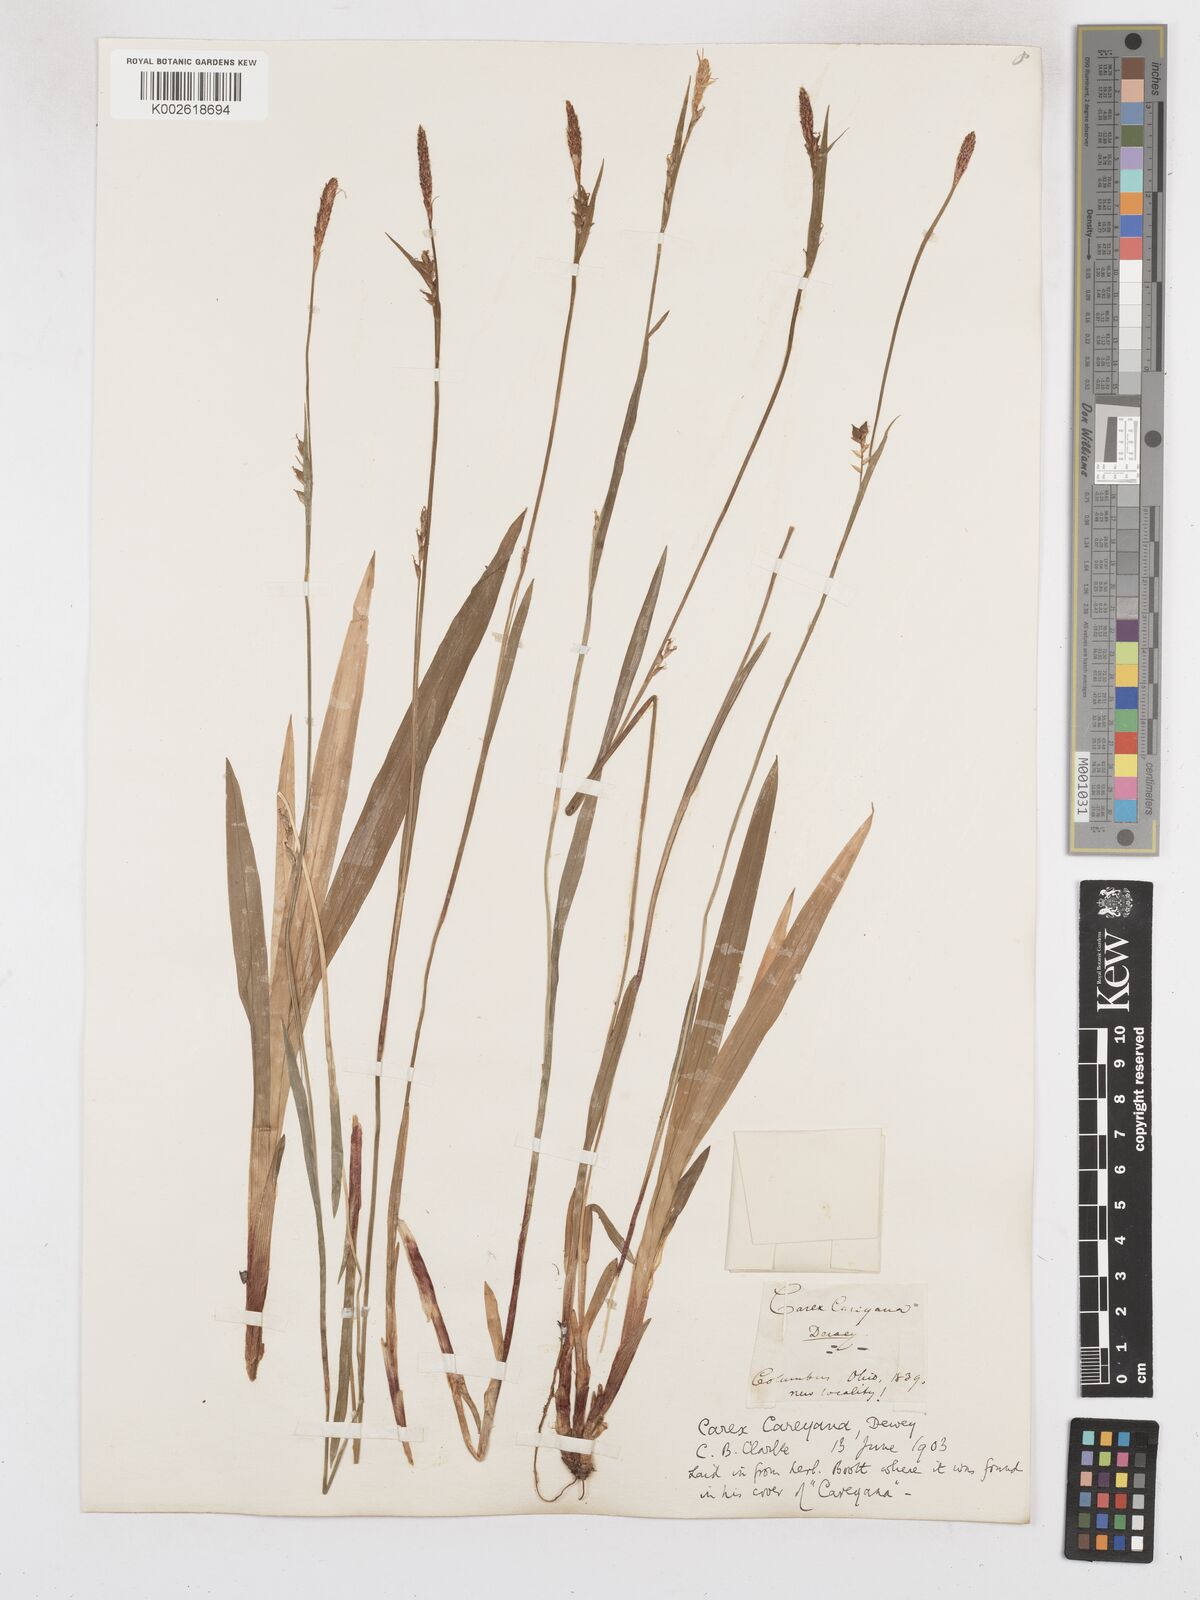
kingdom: Plantae
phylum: Tracheophyta
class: Liliopsida
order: Poales
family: Cyperaceae
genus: Carex
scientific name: Carex careyana
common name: Carey's sedge
